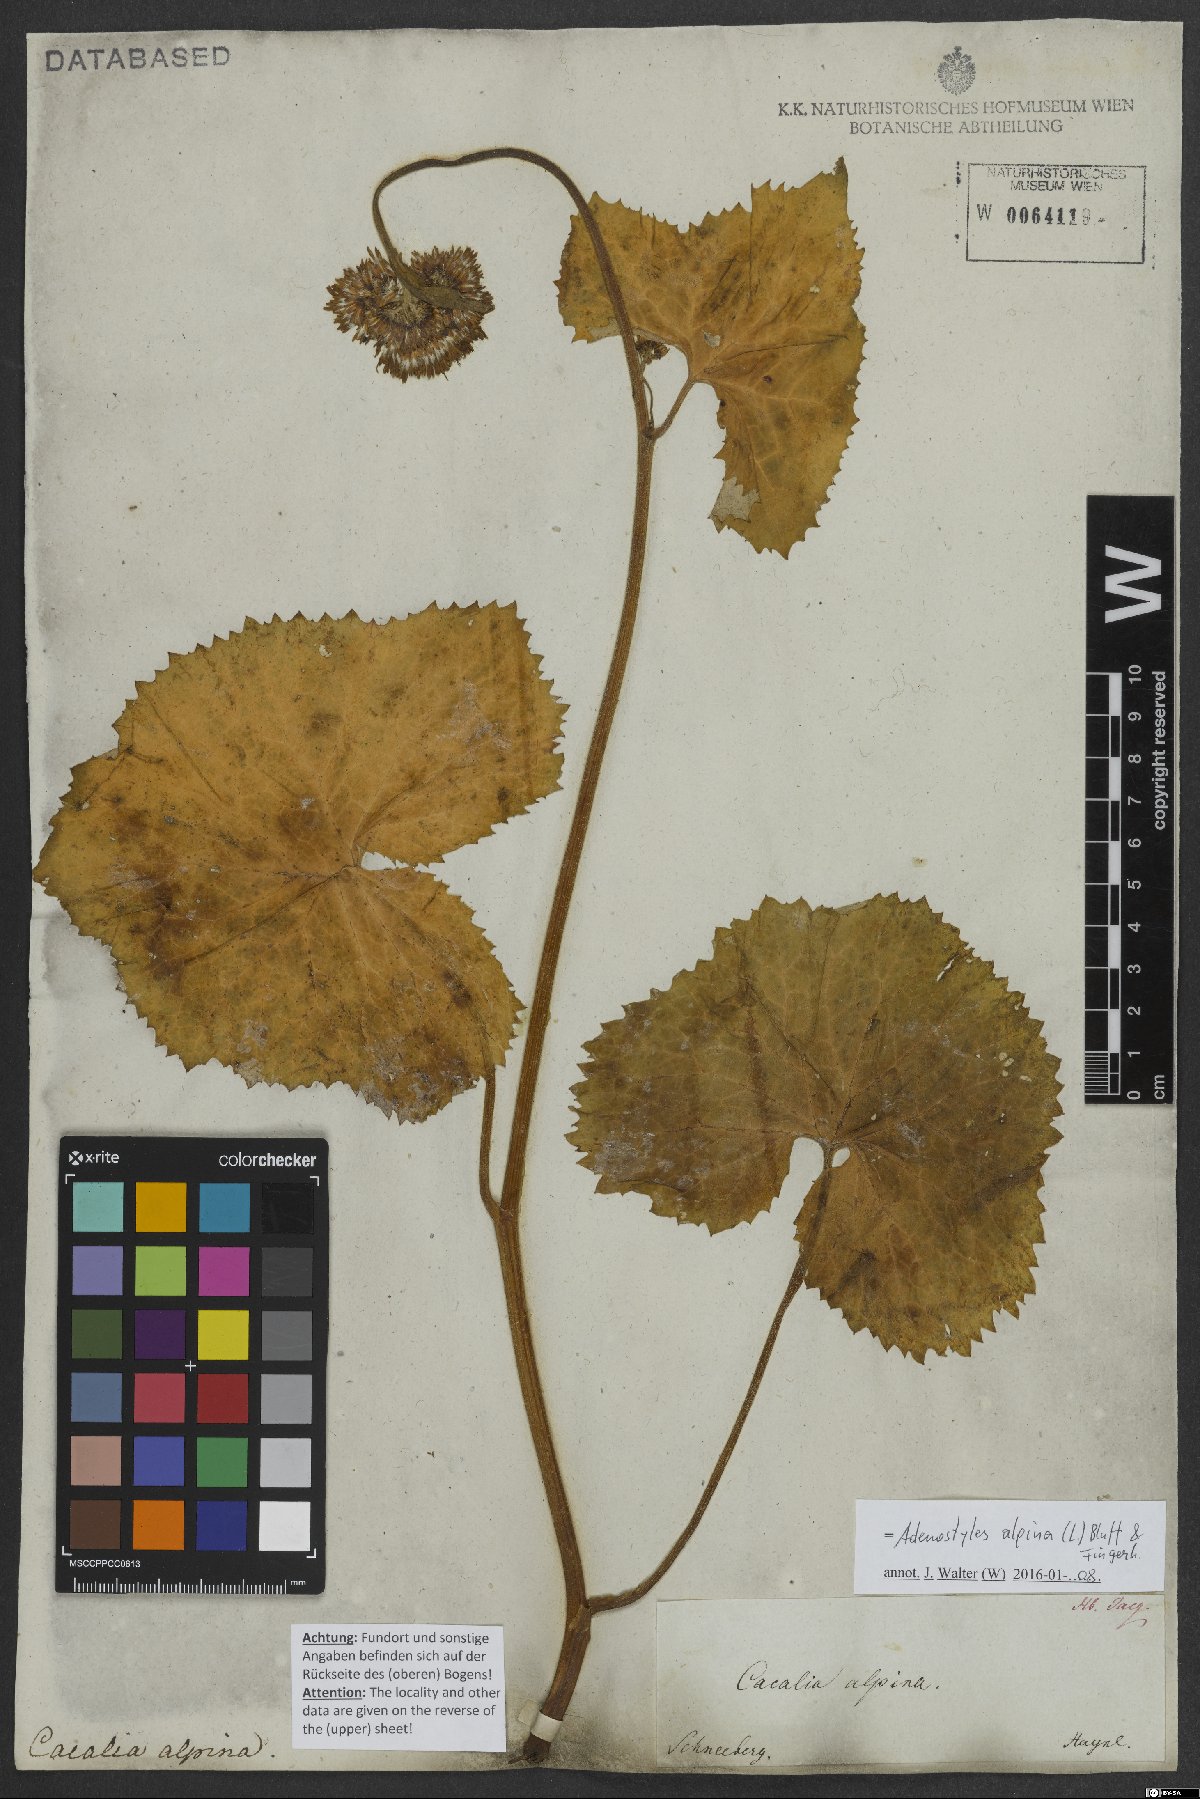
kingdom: Plantae
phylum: Tracheophyta
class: Magnoliopsida
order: Asterales
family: Asteraceae
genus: Adenostyles
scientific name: Adenostyles alpina
